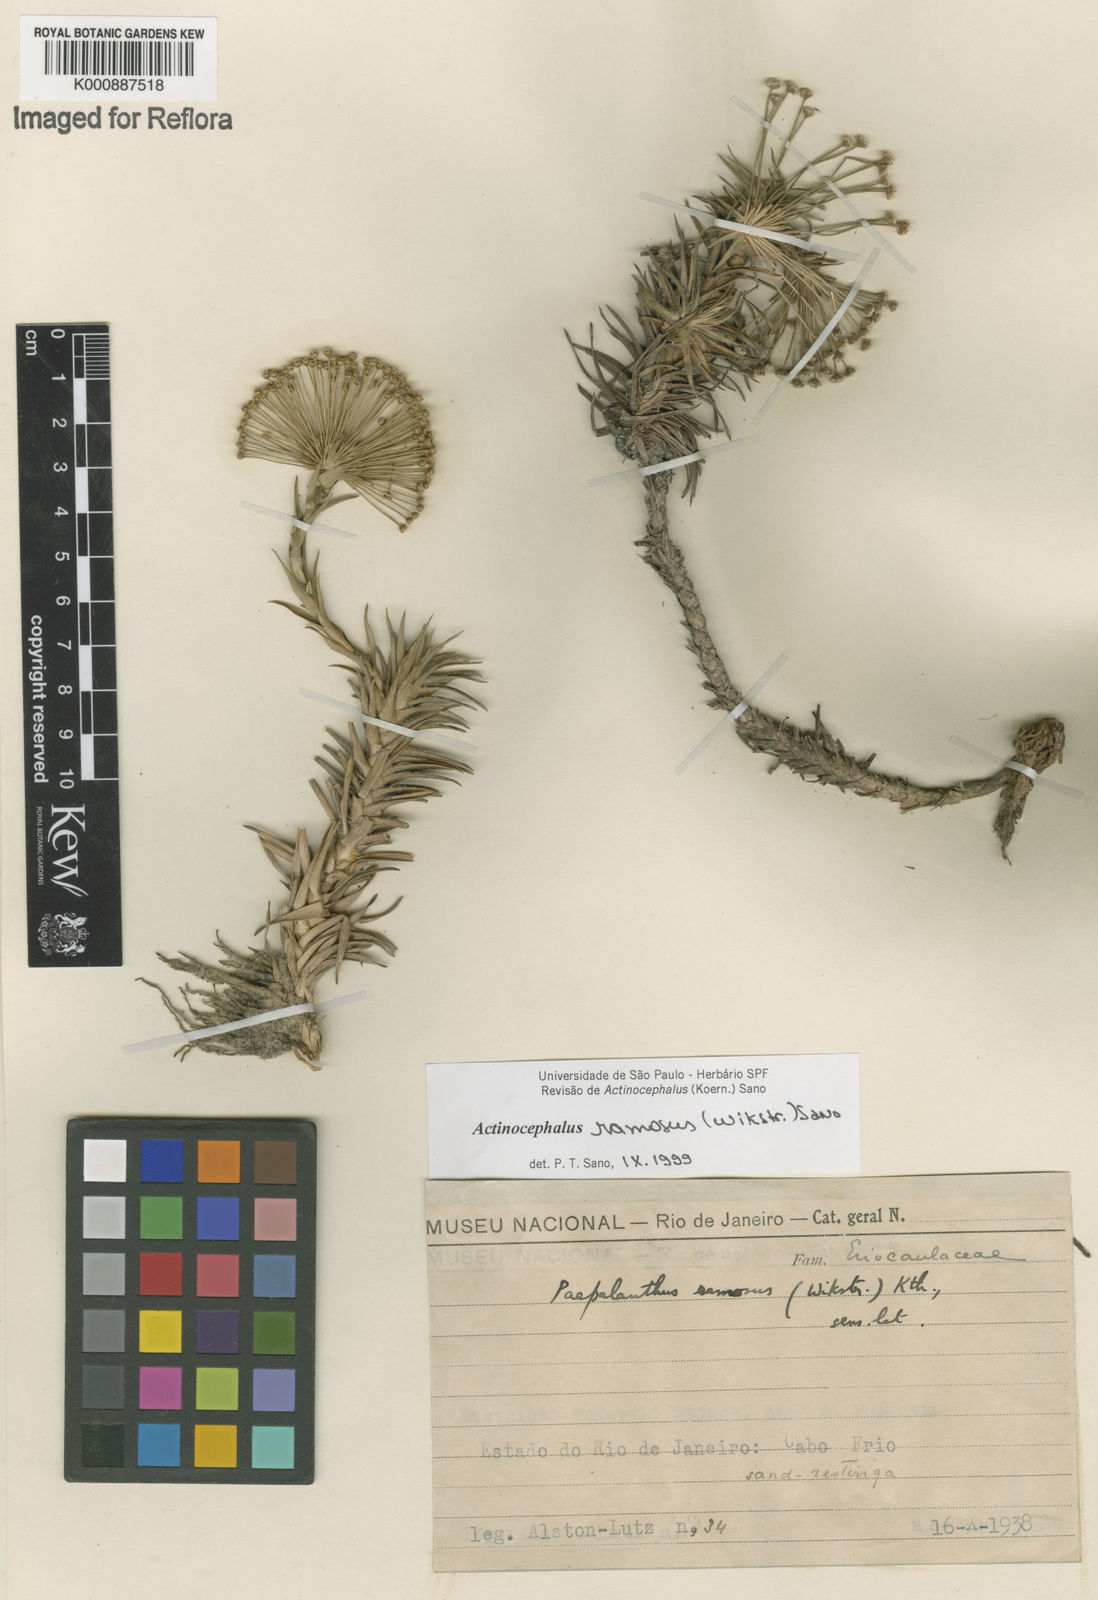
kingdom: Plantae
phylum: Tracheophyta
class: Liliopsida
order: Poales
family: Eriocaulaceae
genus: Paepalanthus
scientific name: Paepalanthus ramosus
